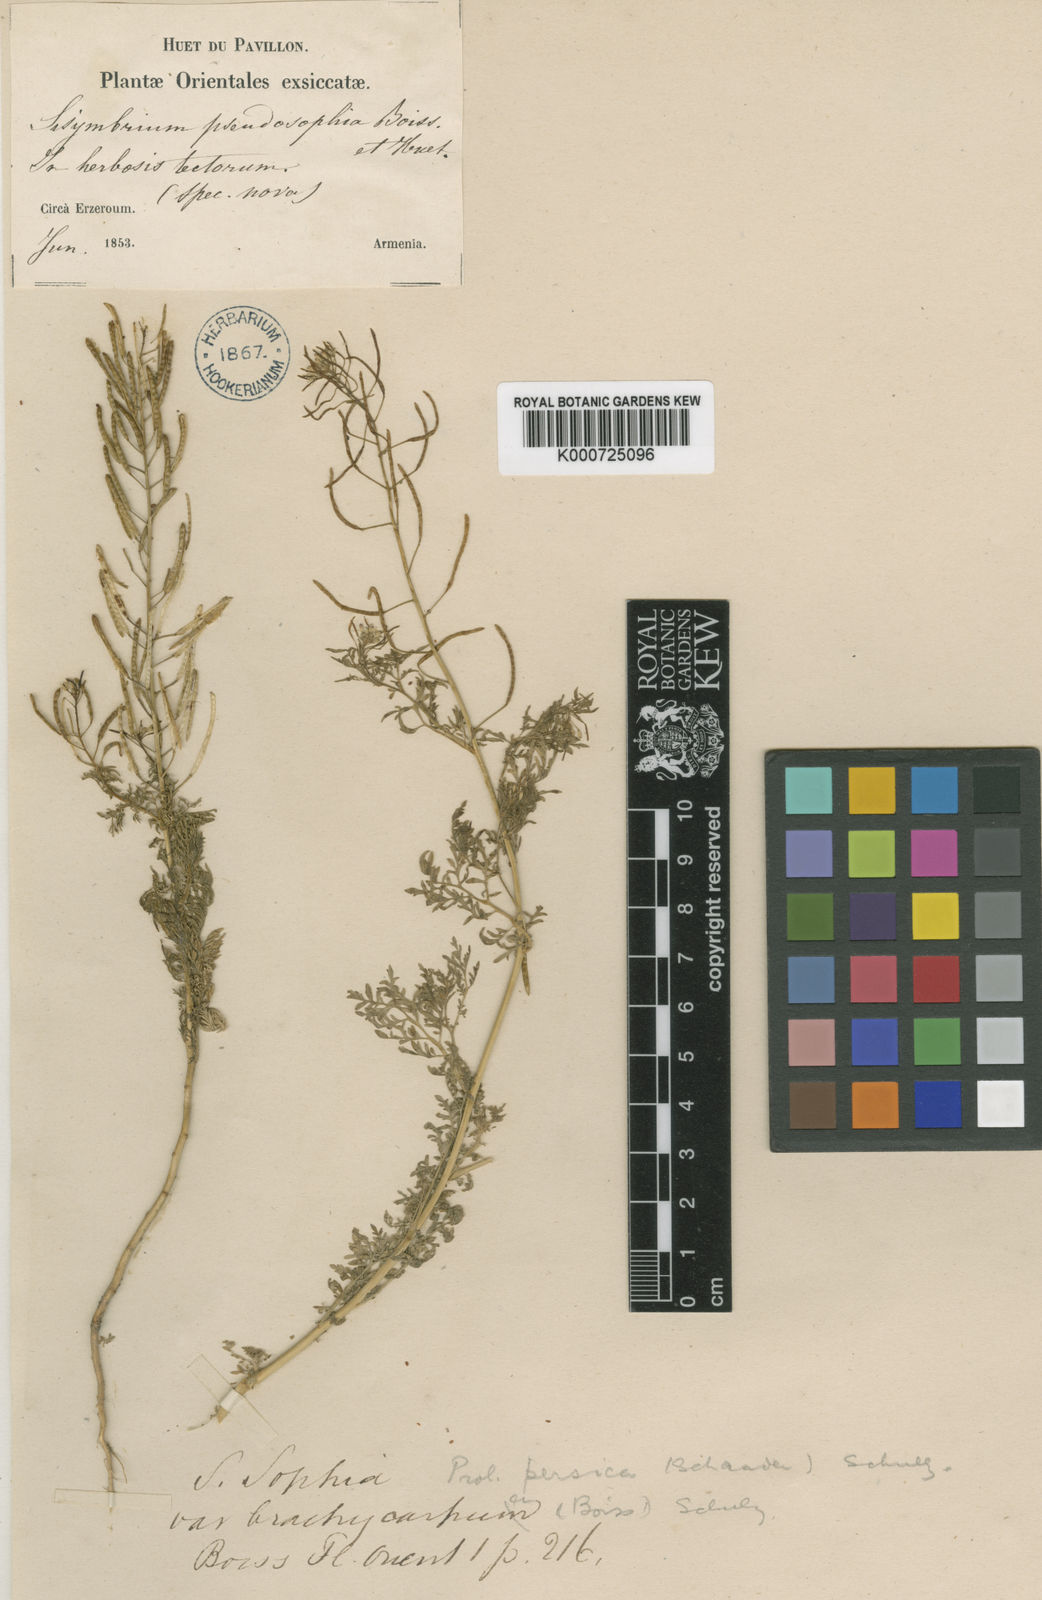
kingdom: Plantae
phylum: Tracheophyta
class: Magnoliopsida
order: Brassicales
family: Brassicaceae
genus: Descurainia
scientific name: Descurainia sophia
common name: Flixweed
